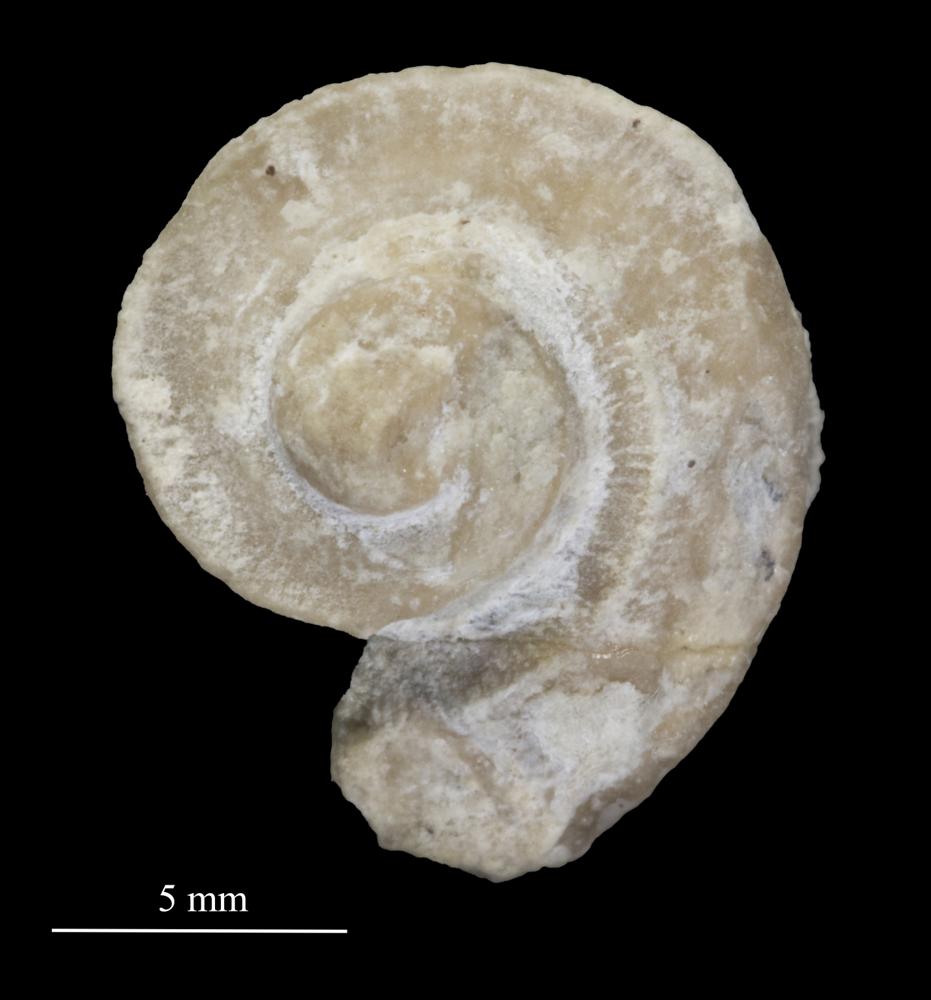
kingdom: Animalia
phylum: Mollusca
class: Gastropoda
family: Trochonematidae
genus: Trochonema
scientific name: Trochonema panderi
